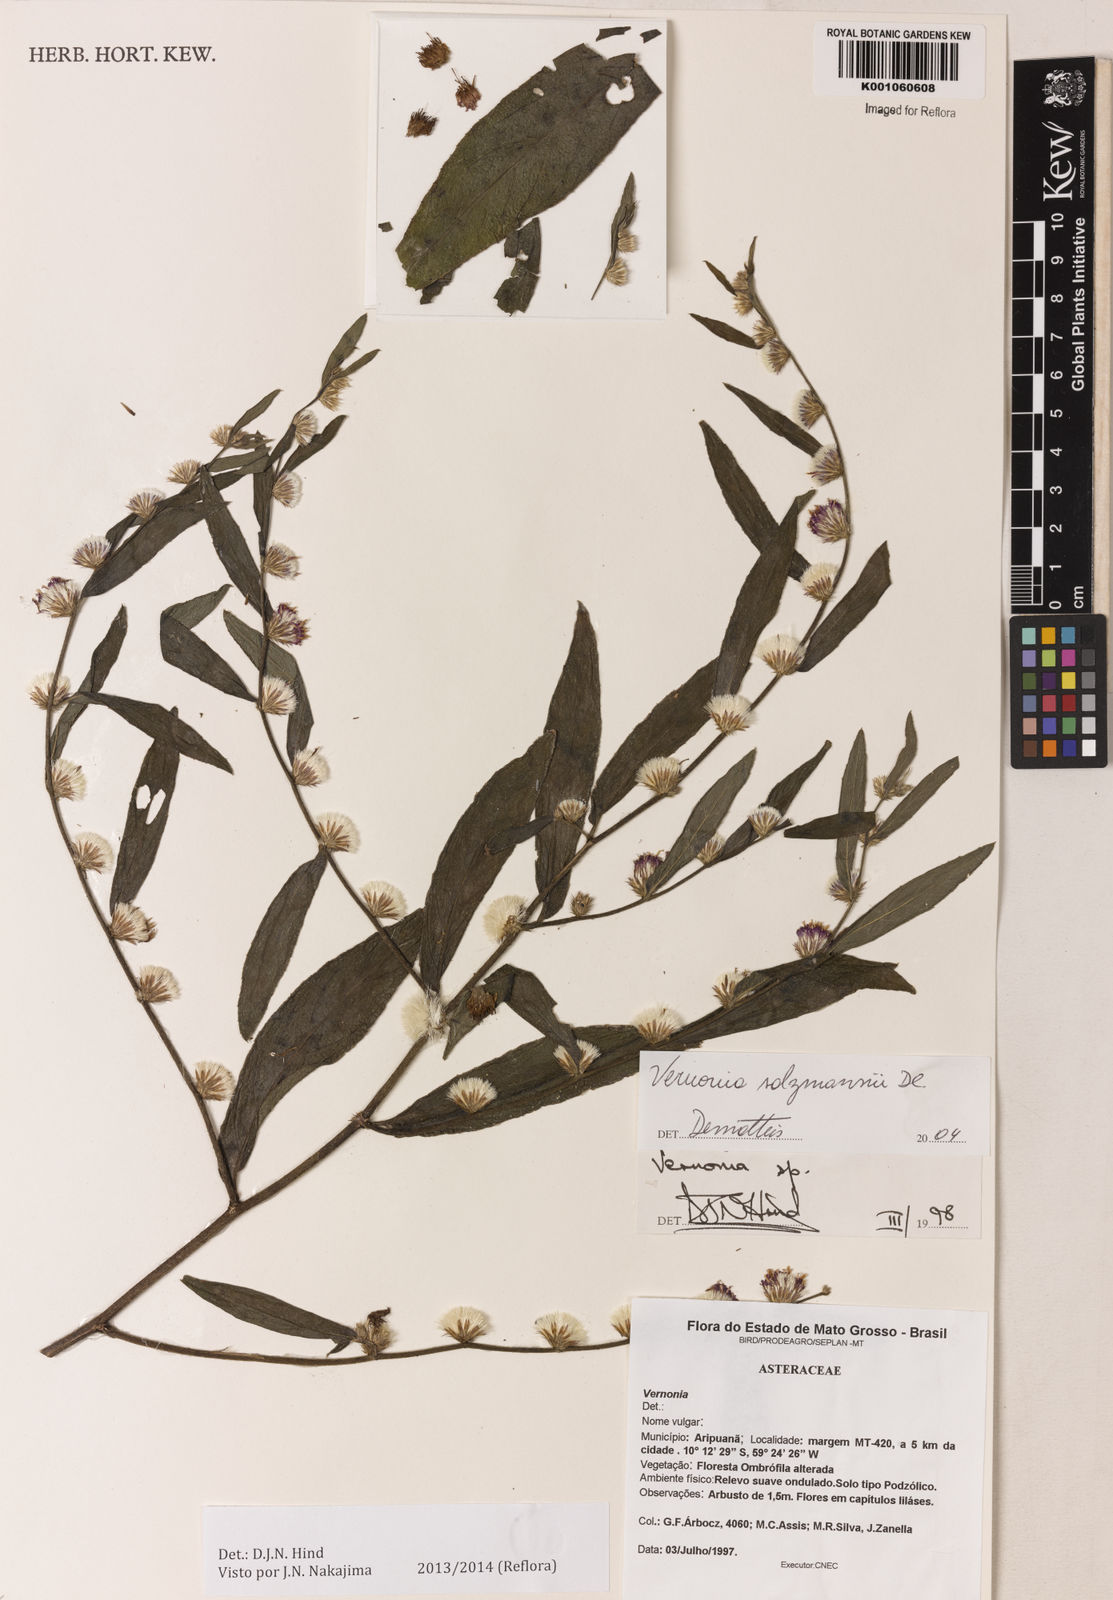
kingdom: Plantae
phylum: Tracheophyta
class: Magnoliopsida
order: Asterales
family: Asteraceae
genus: Lepidaploa
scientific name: Lepidaploa salzmannii
